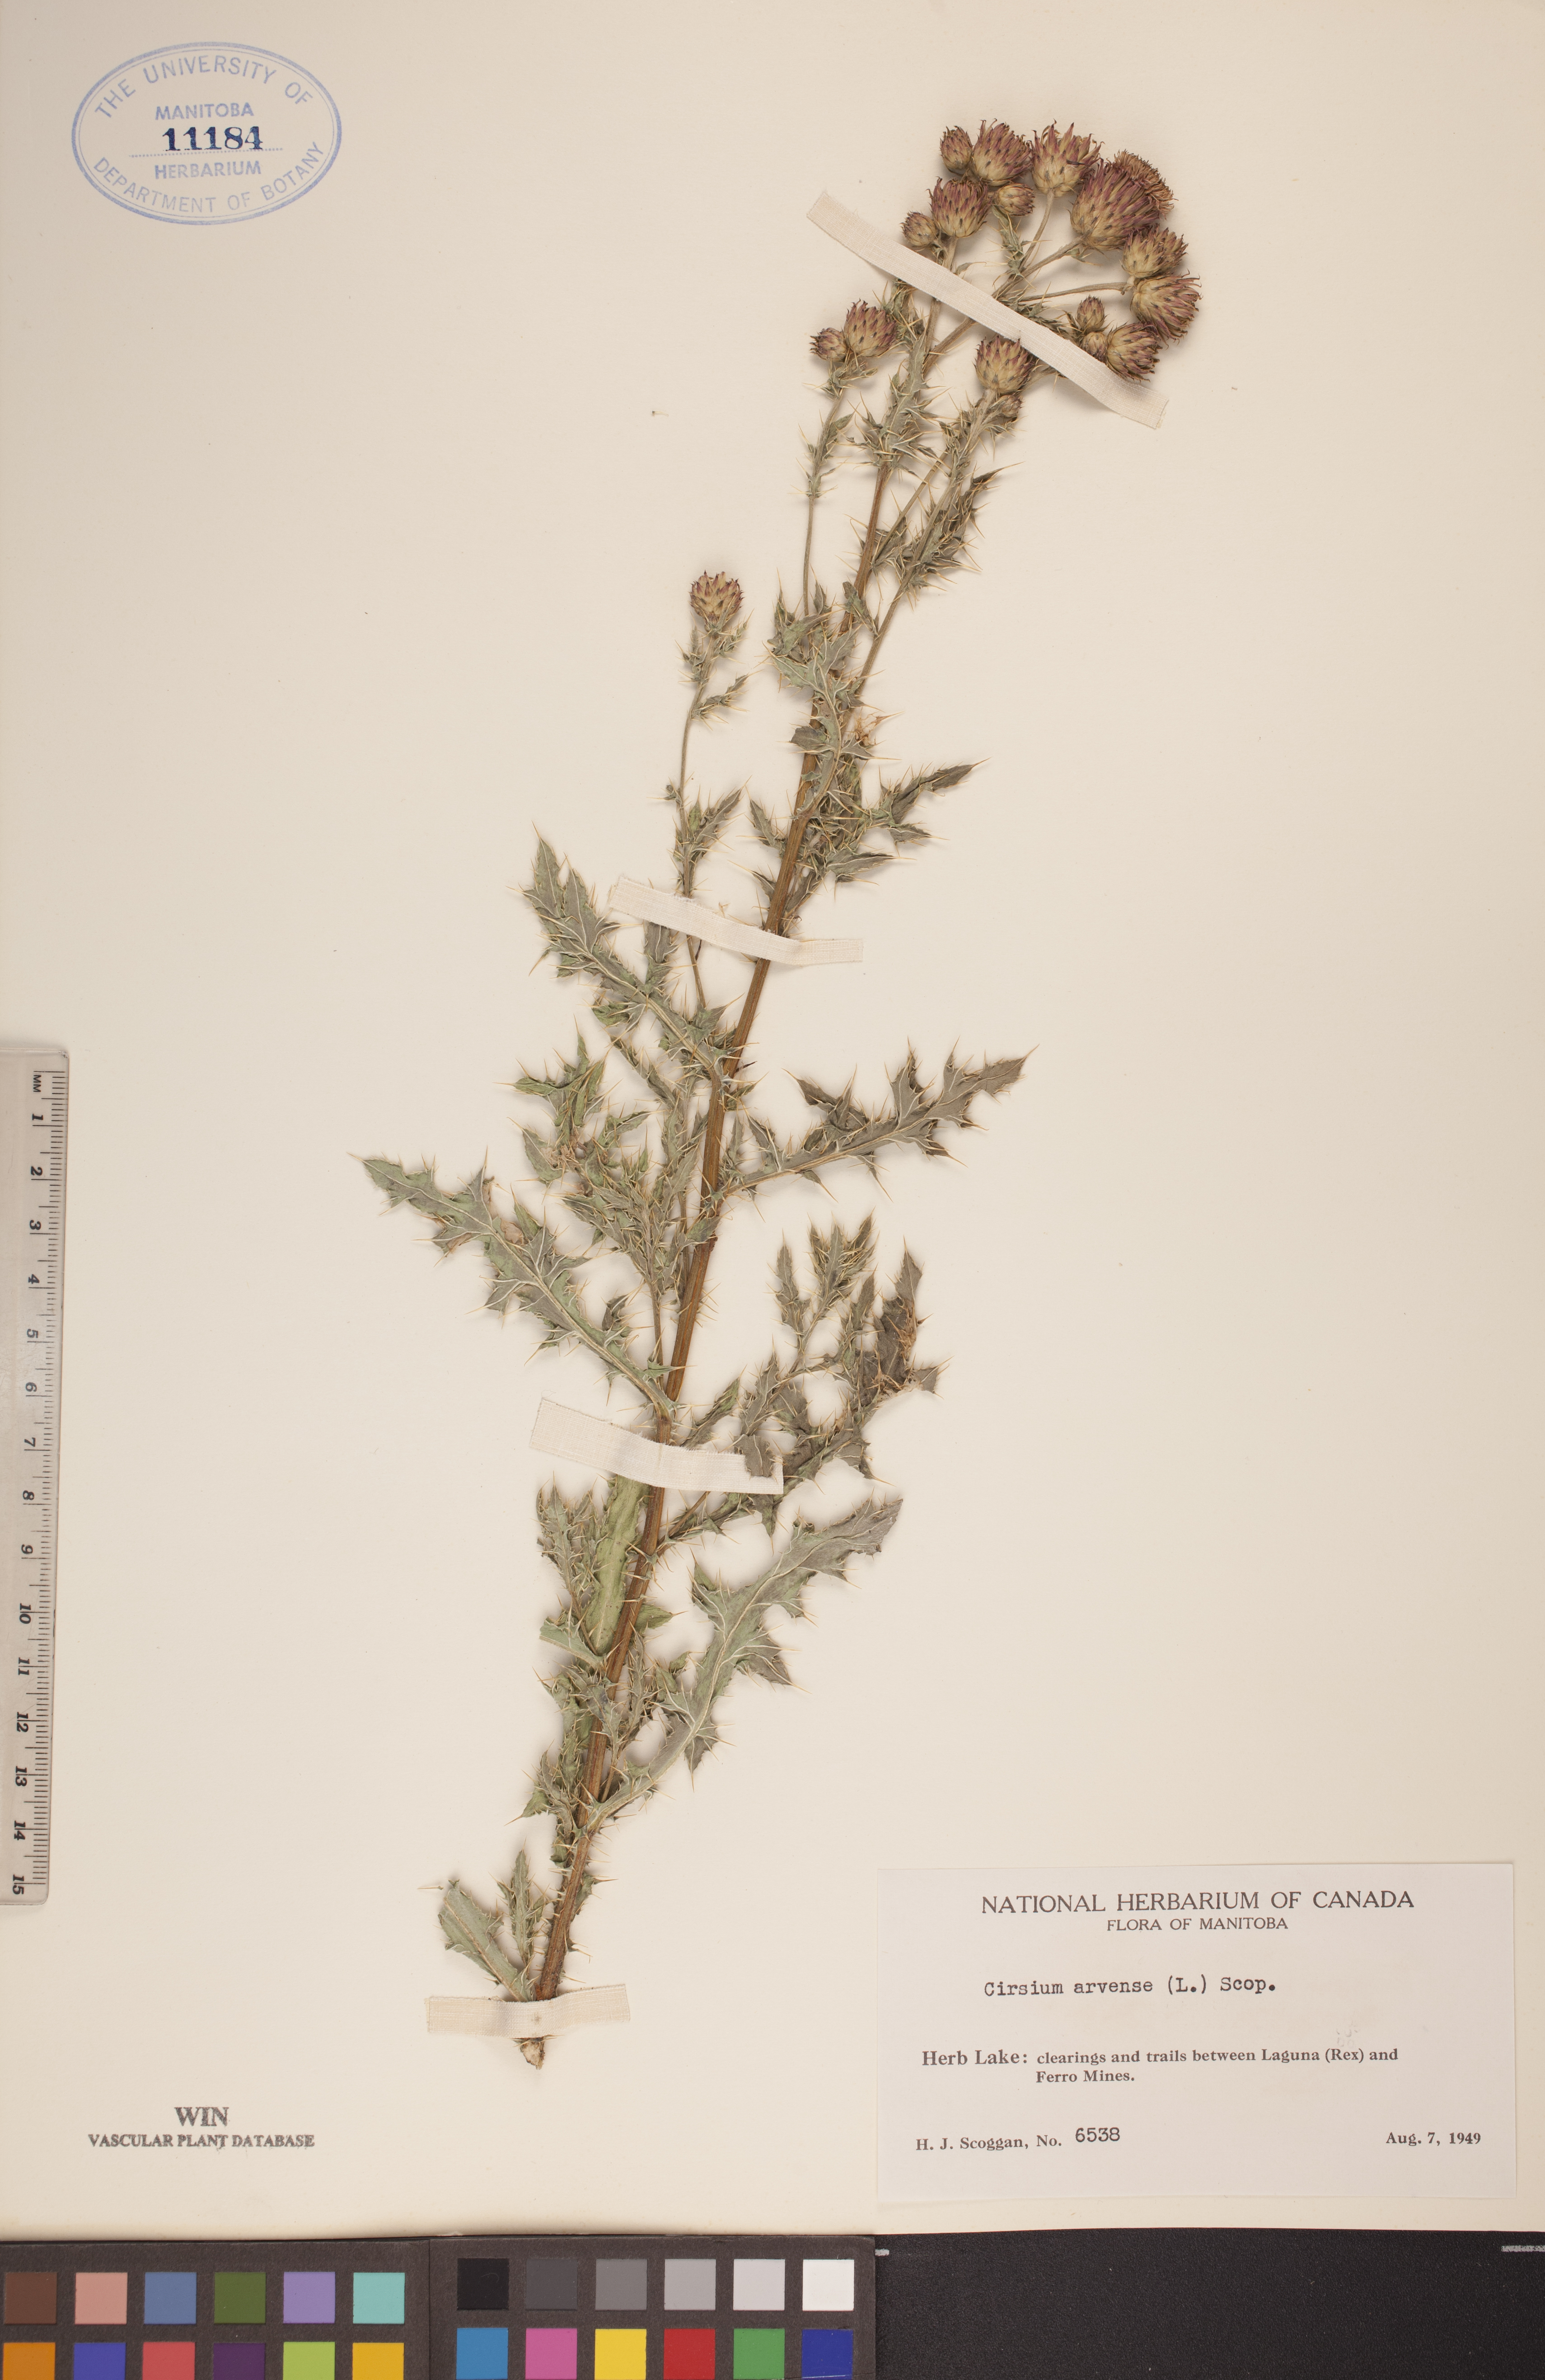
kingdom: Plantae
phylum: Tracheophyta
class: Magnoliopsida
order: Asterales
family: Asteraceae
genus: Cirsium
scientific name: Cirsium arvense
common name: Creeping thistle
